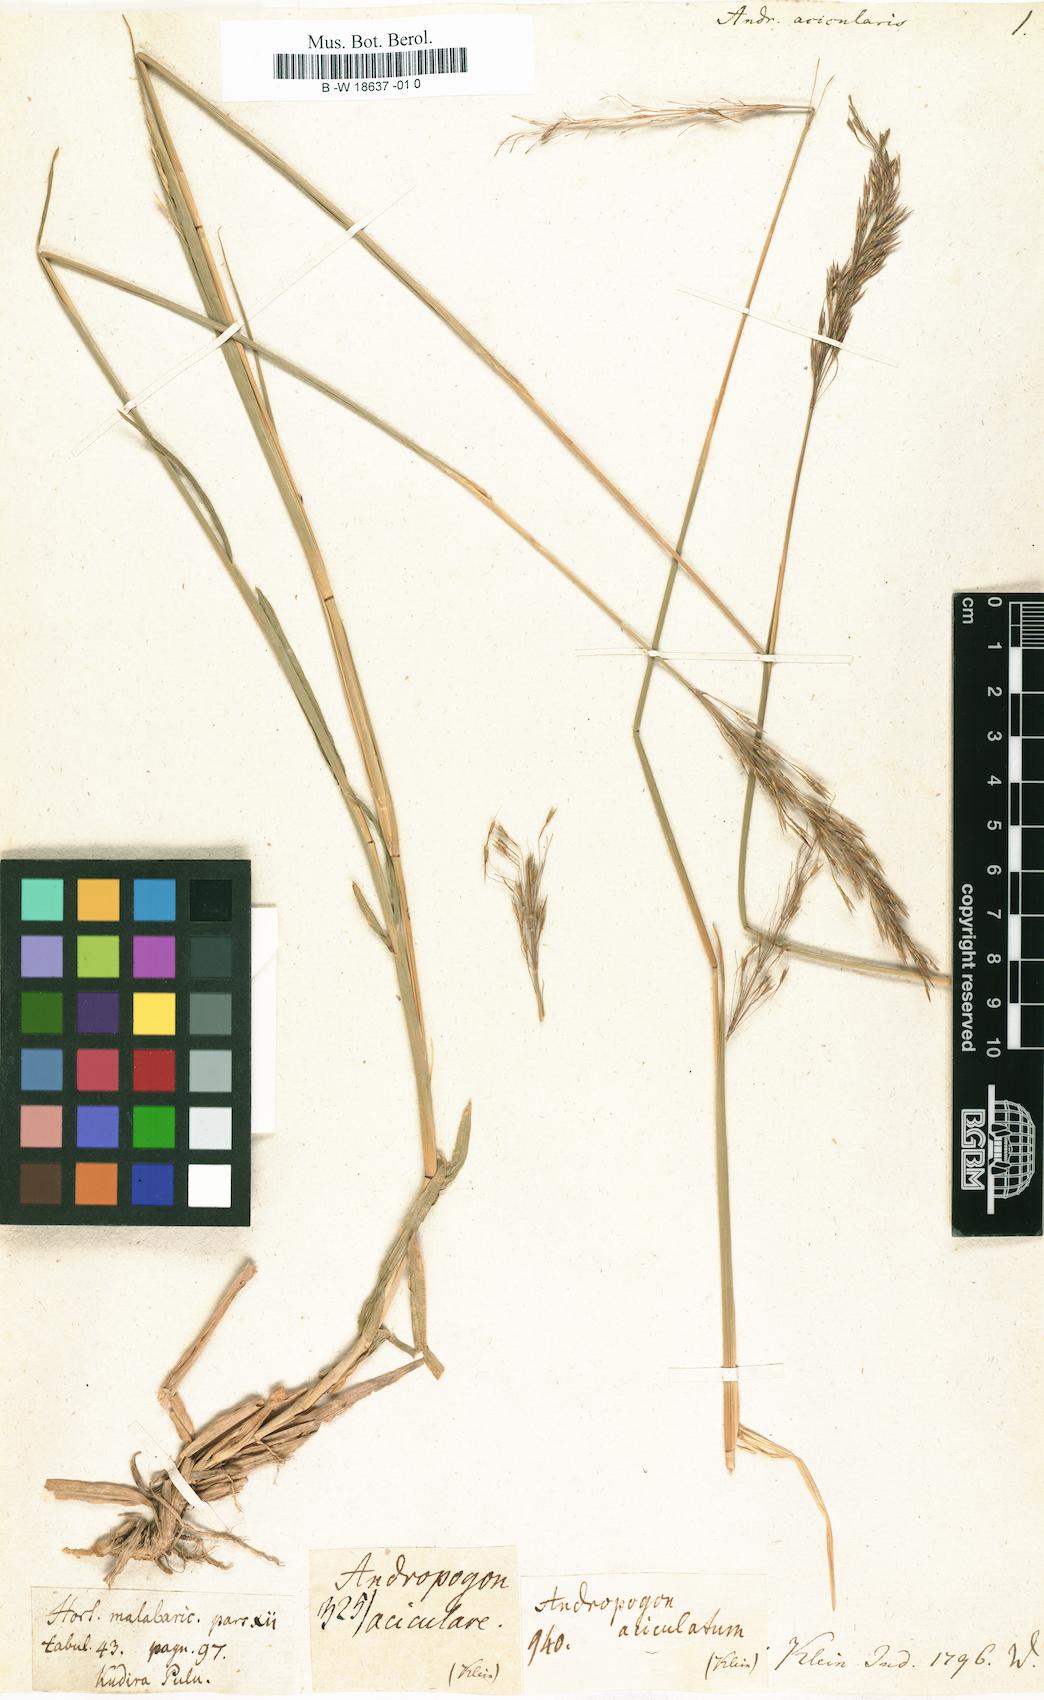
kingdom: Plantae
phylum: Tracheophyta
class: Liliopsida
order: Poales
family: Poaceae
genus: Chrysopogon
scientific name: Chrysopogon aciculatus
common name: Pilipiliula
